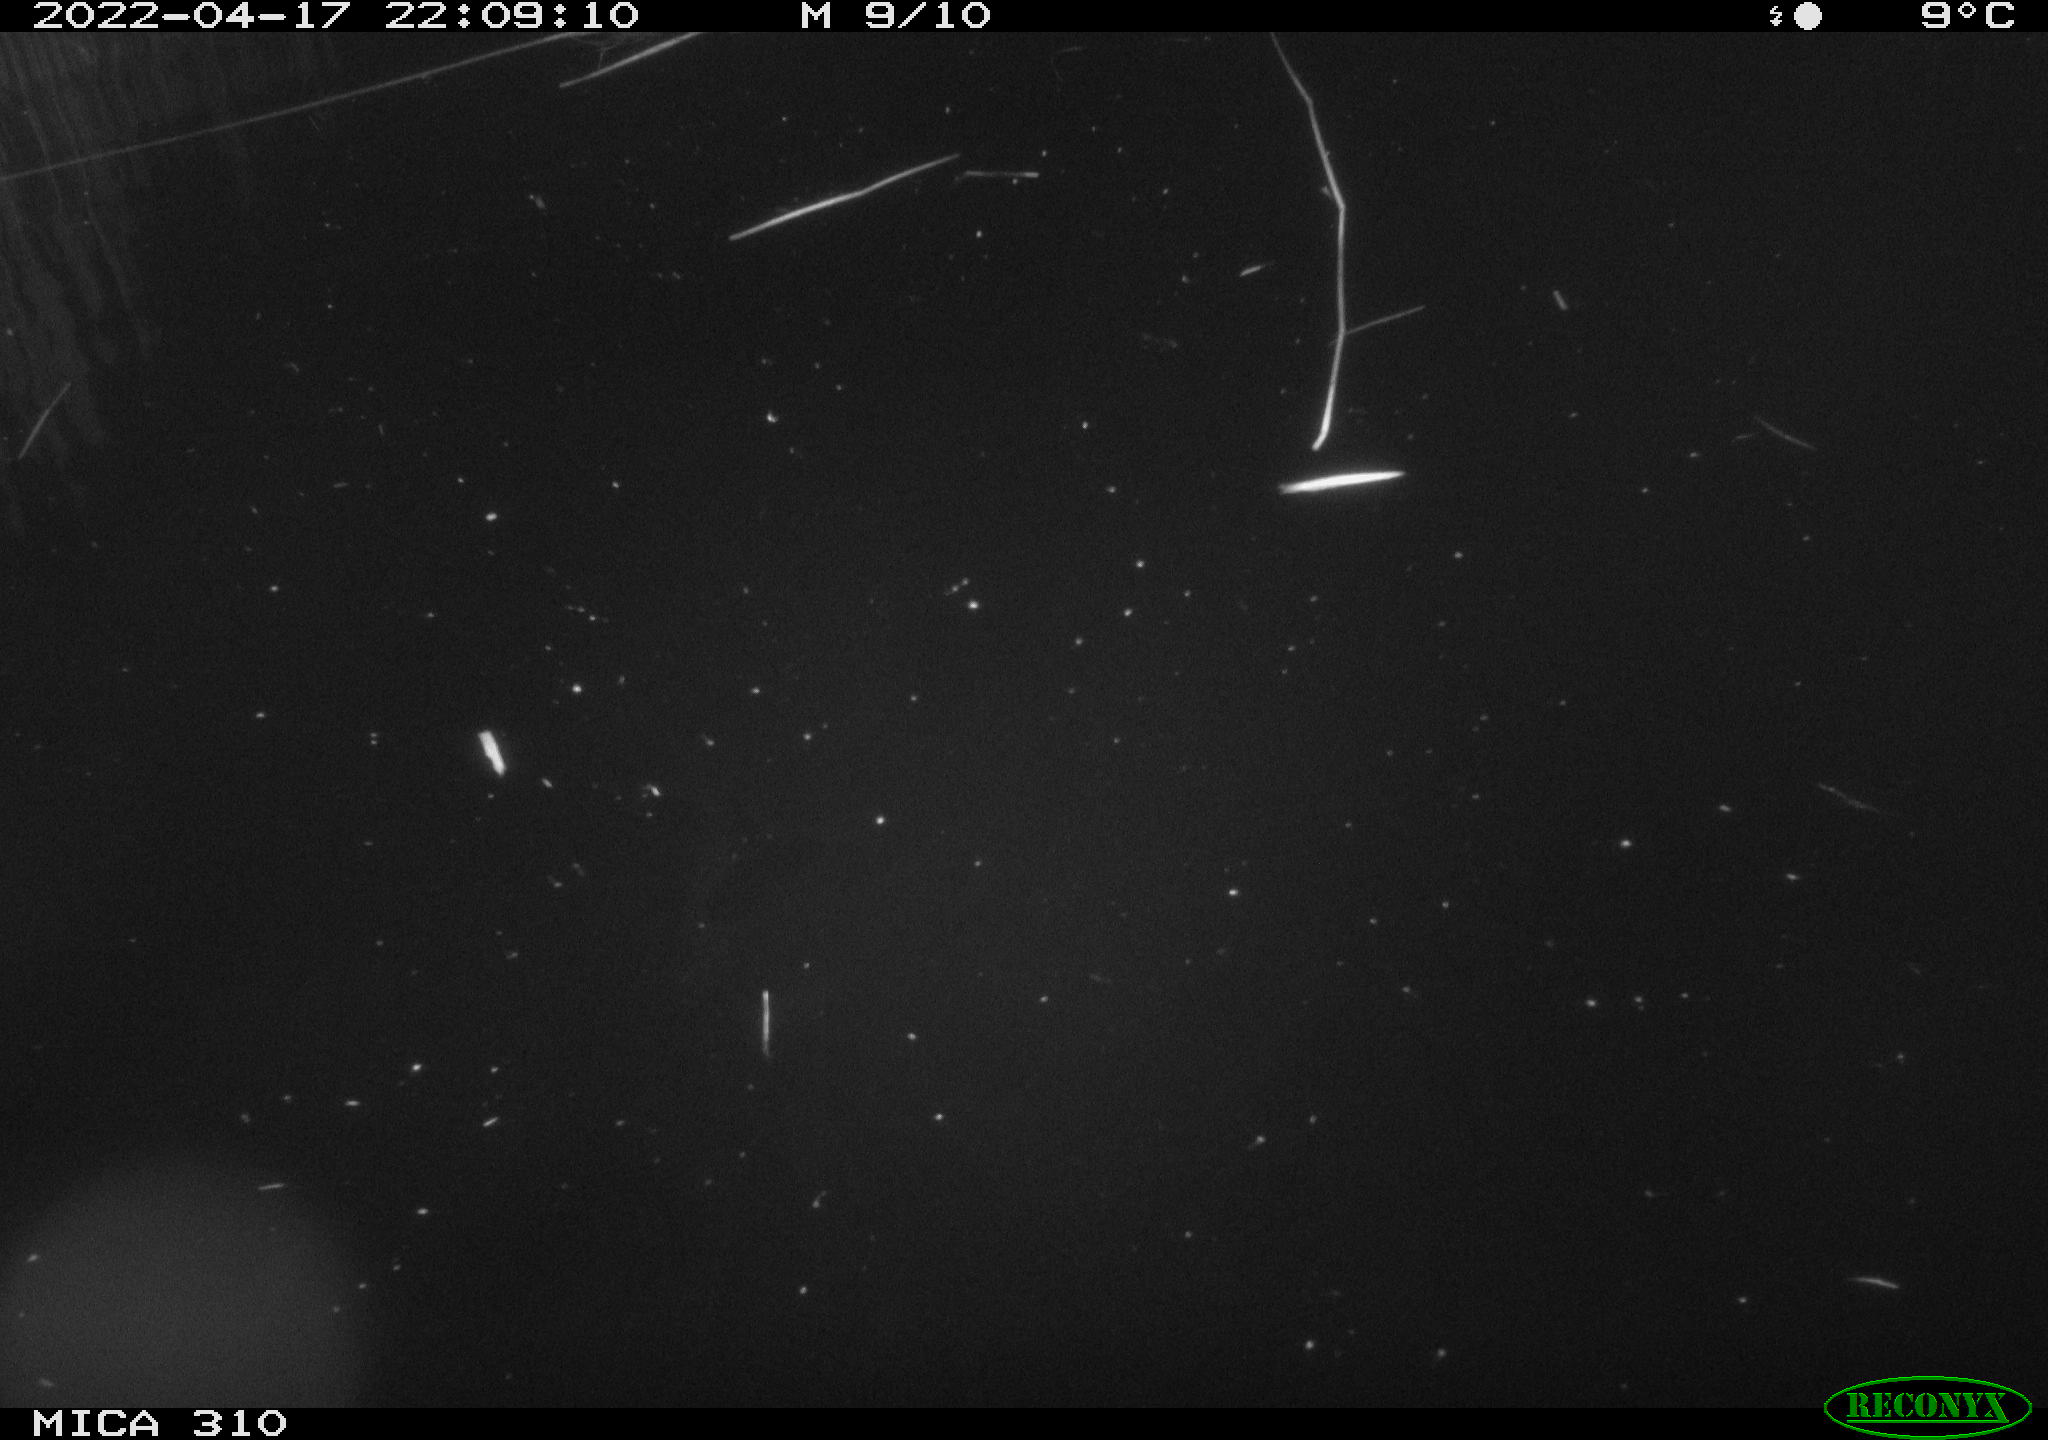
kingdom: Animalia
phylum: Chordata
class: Aves
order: Anseriformes
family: Anatidae
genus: Anas
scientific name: Anas platyrhynchos
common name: Mallard
